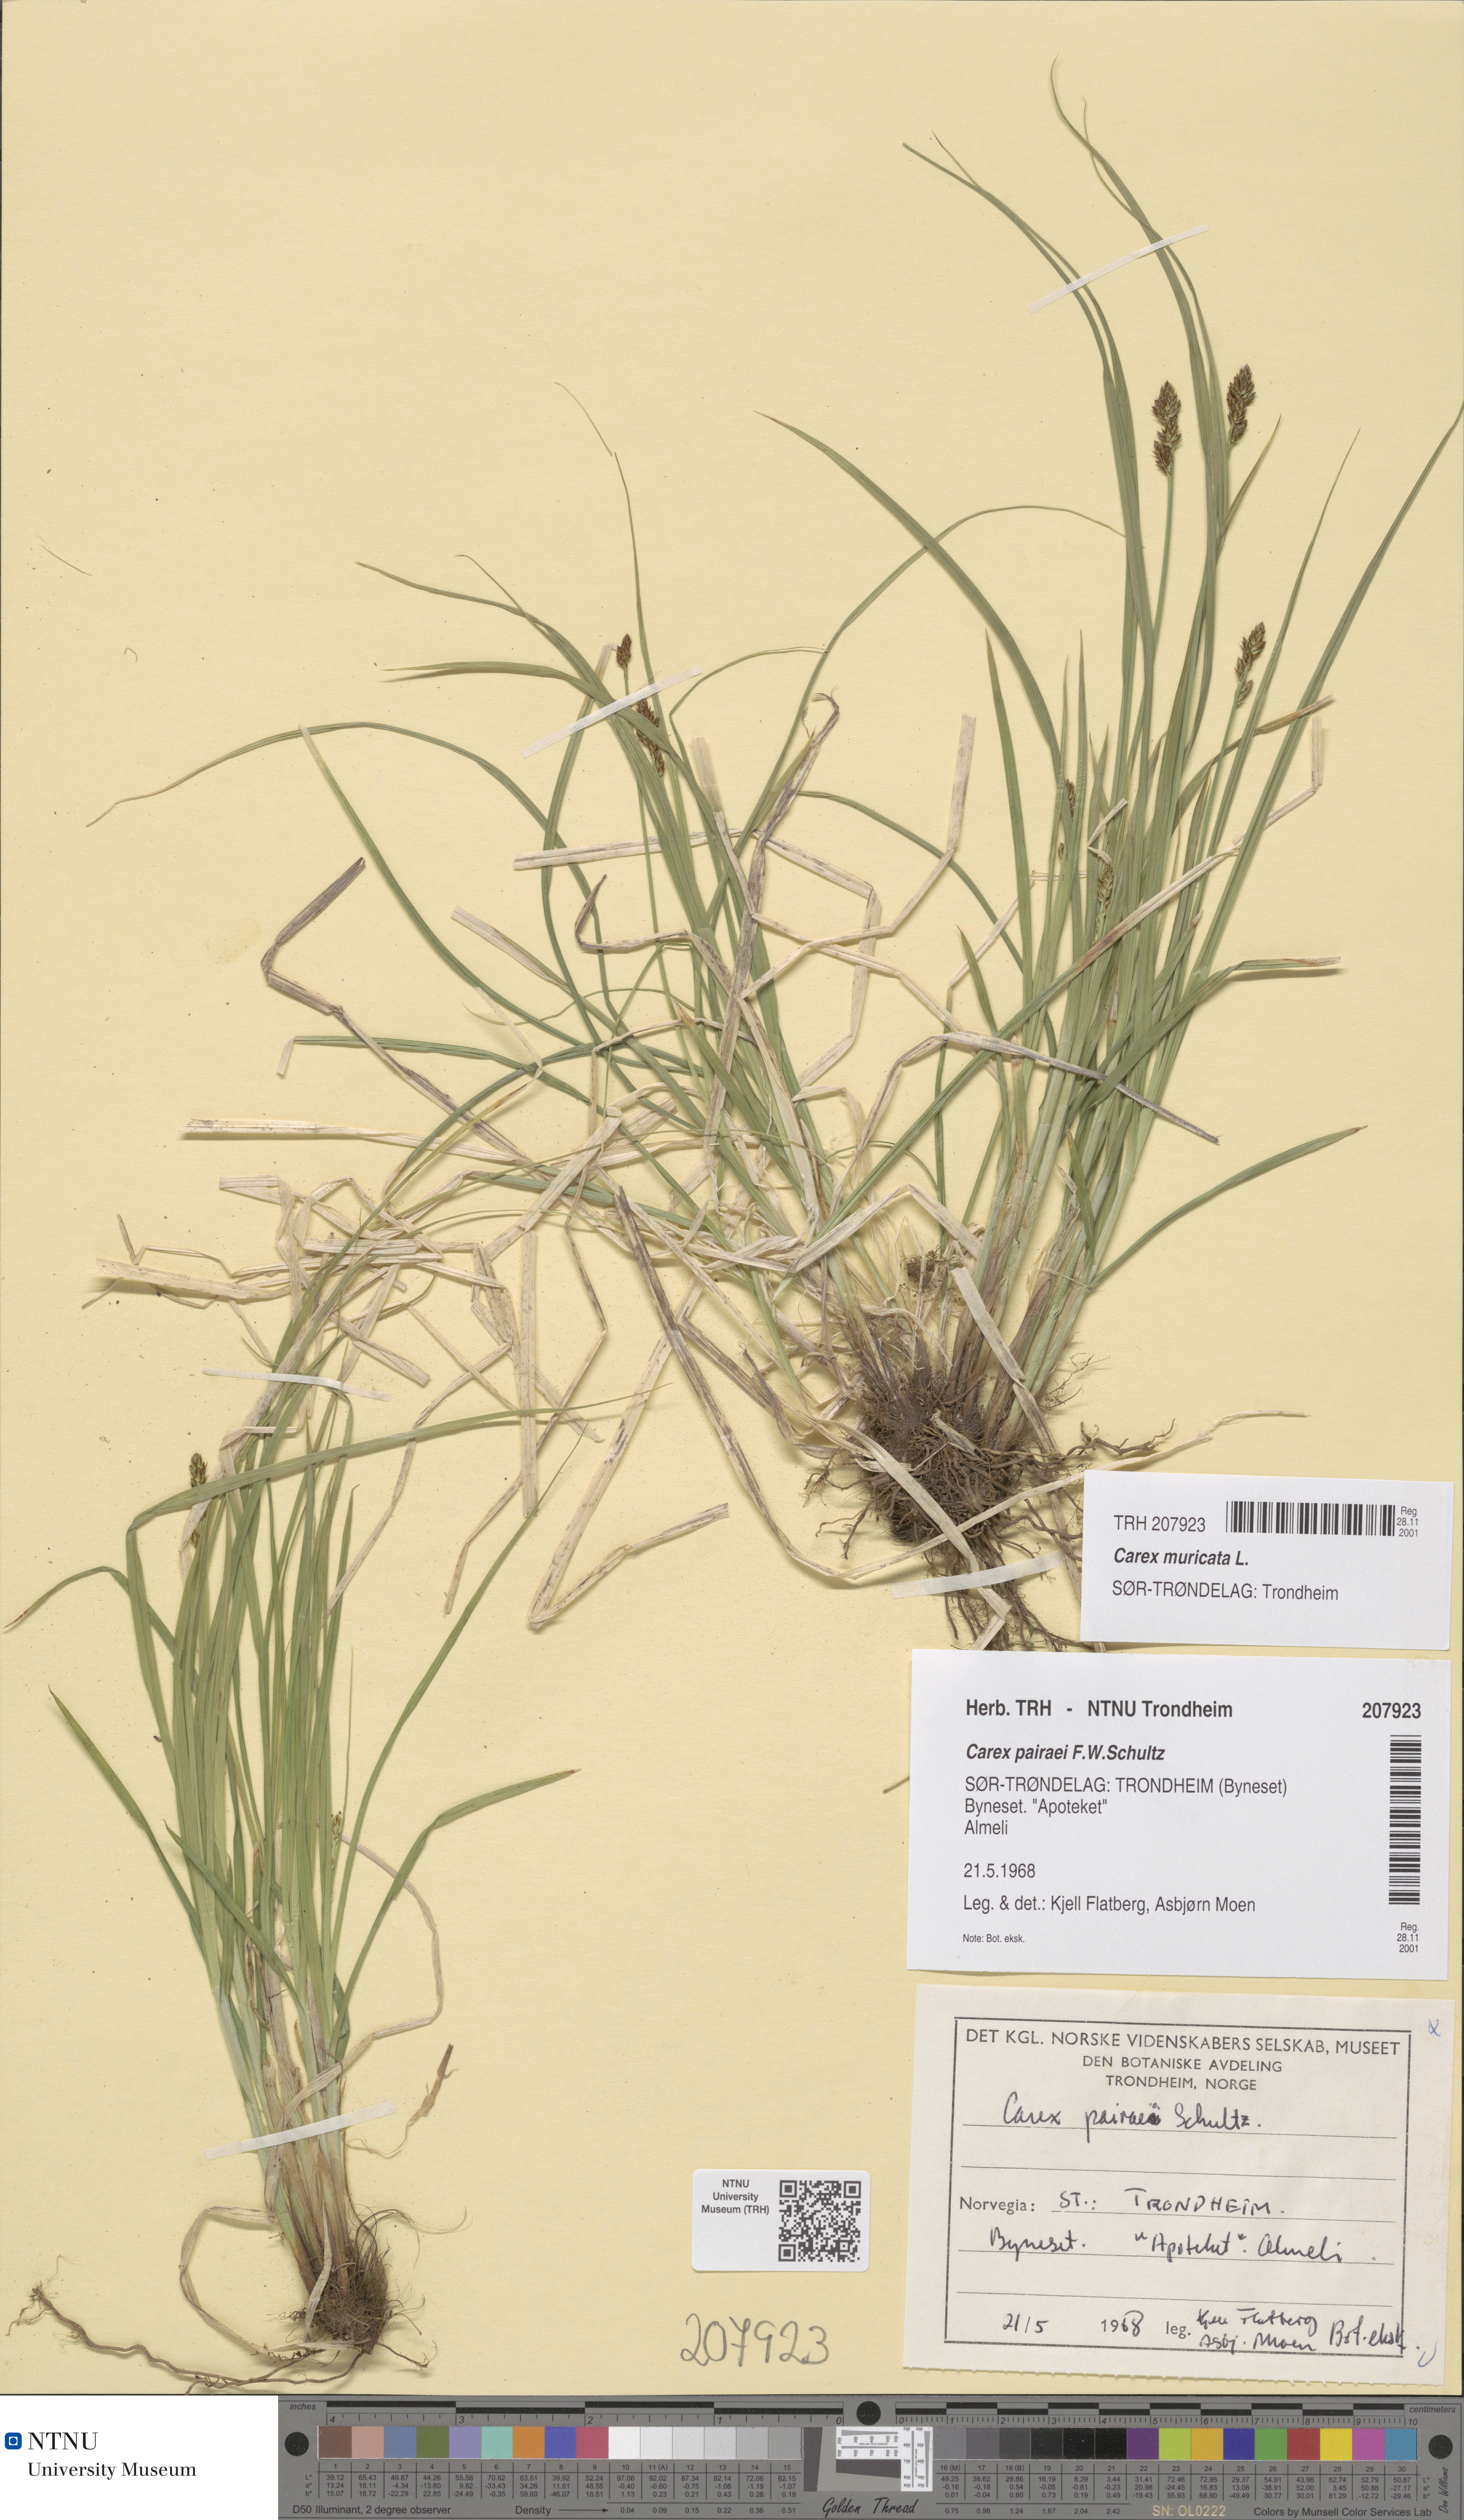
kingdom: Plantae
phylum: Tracheophyta
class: Liliopsida
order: Poales
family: Cyperaceae
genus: Carex
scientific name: Carex muricata
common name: Rough sedge
